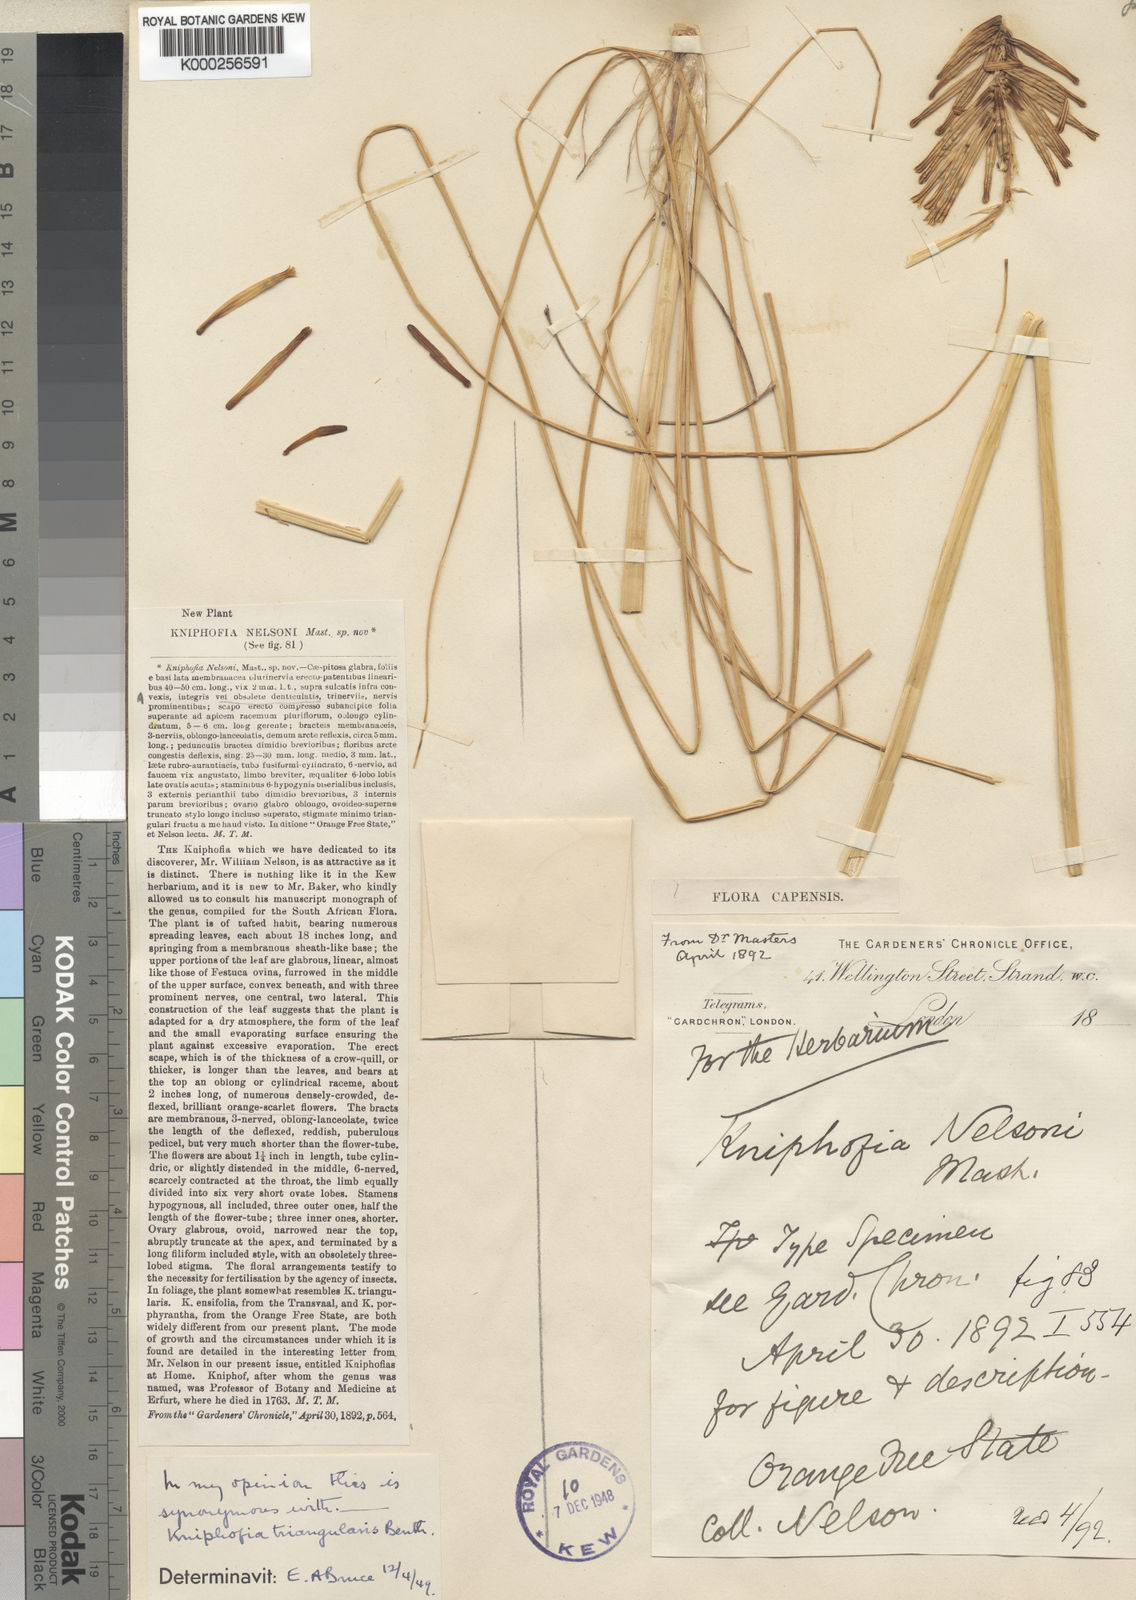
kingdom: Plantae
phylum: Tracheophyta
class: Liliopsida
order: Asparagales
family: Asphodelaceae
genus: Kniphofia
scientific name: Kniphofia triangularis
